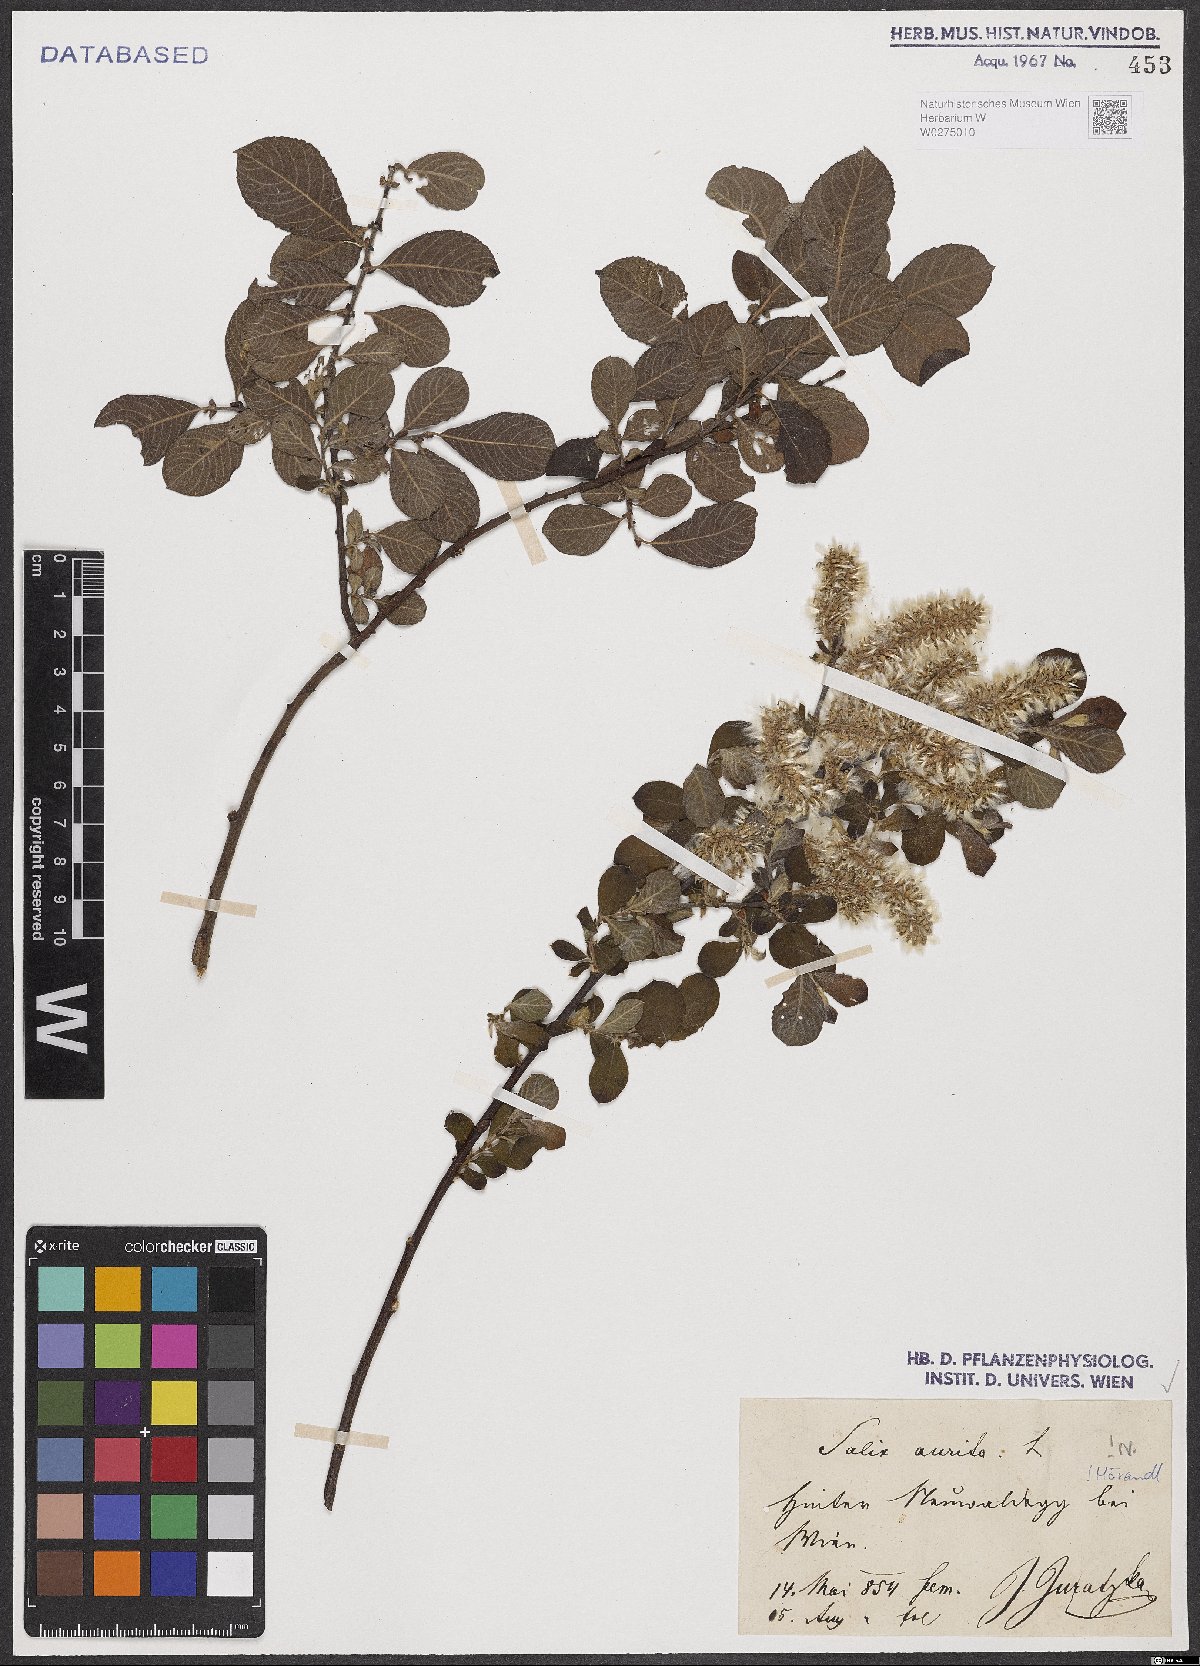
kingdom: Plantae
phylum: Tracheophyta
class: Magnoliopsida
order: Malpighiales
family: Salicaceae
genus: Salix
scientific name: Salix aurita
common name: Eared willow
